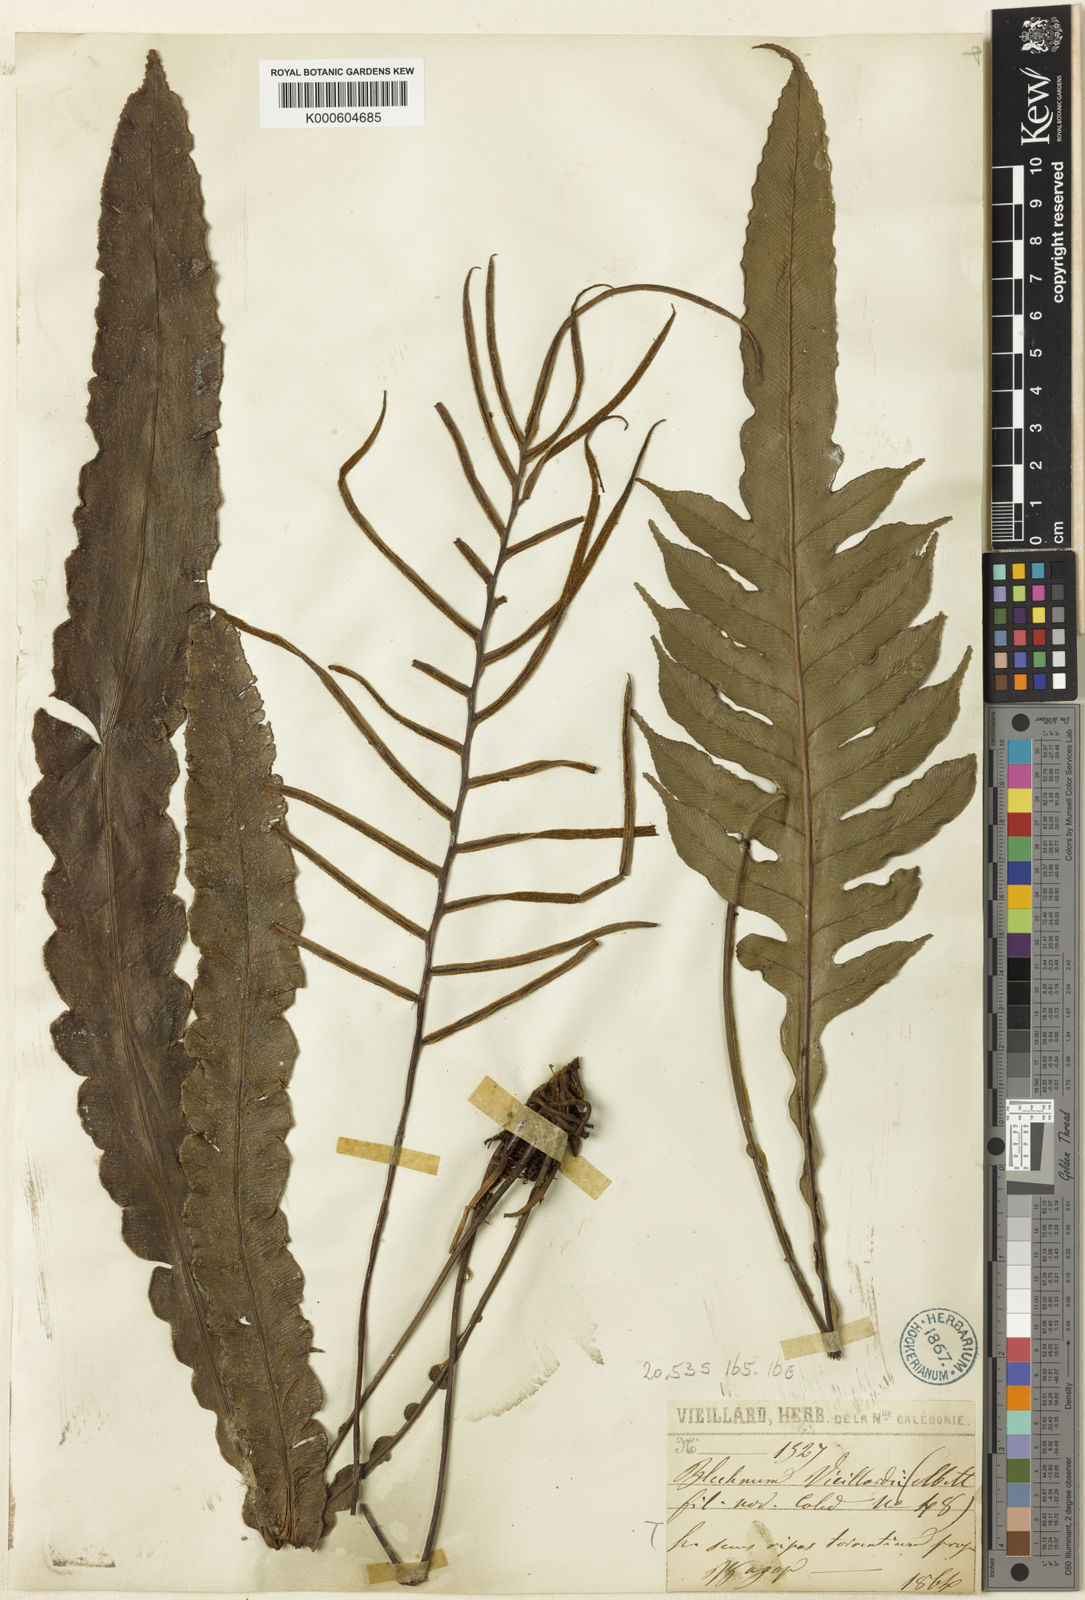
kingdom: Plantae
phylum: Tracheophyta
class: Polypodiopsida
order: Polypodiales
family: Blechnaceae
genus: Austroblechnum
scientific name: Austroblechnum vieillardii
